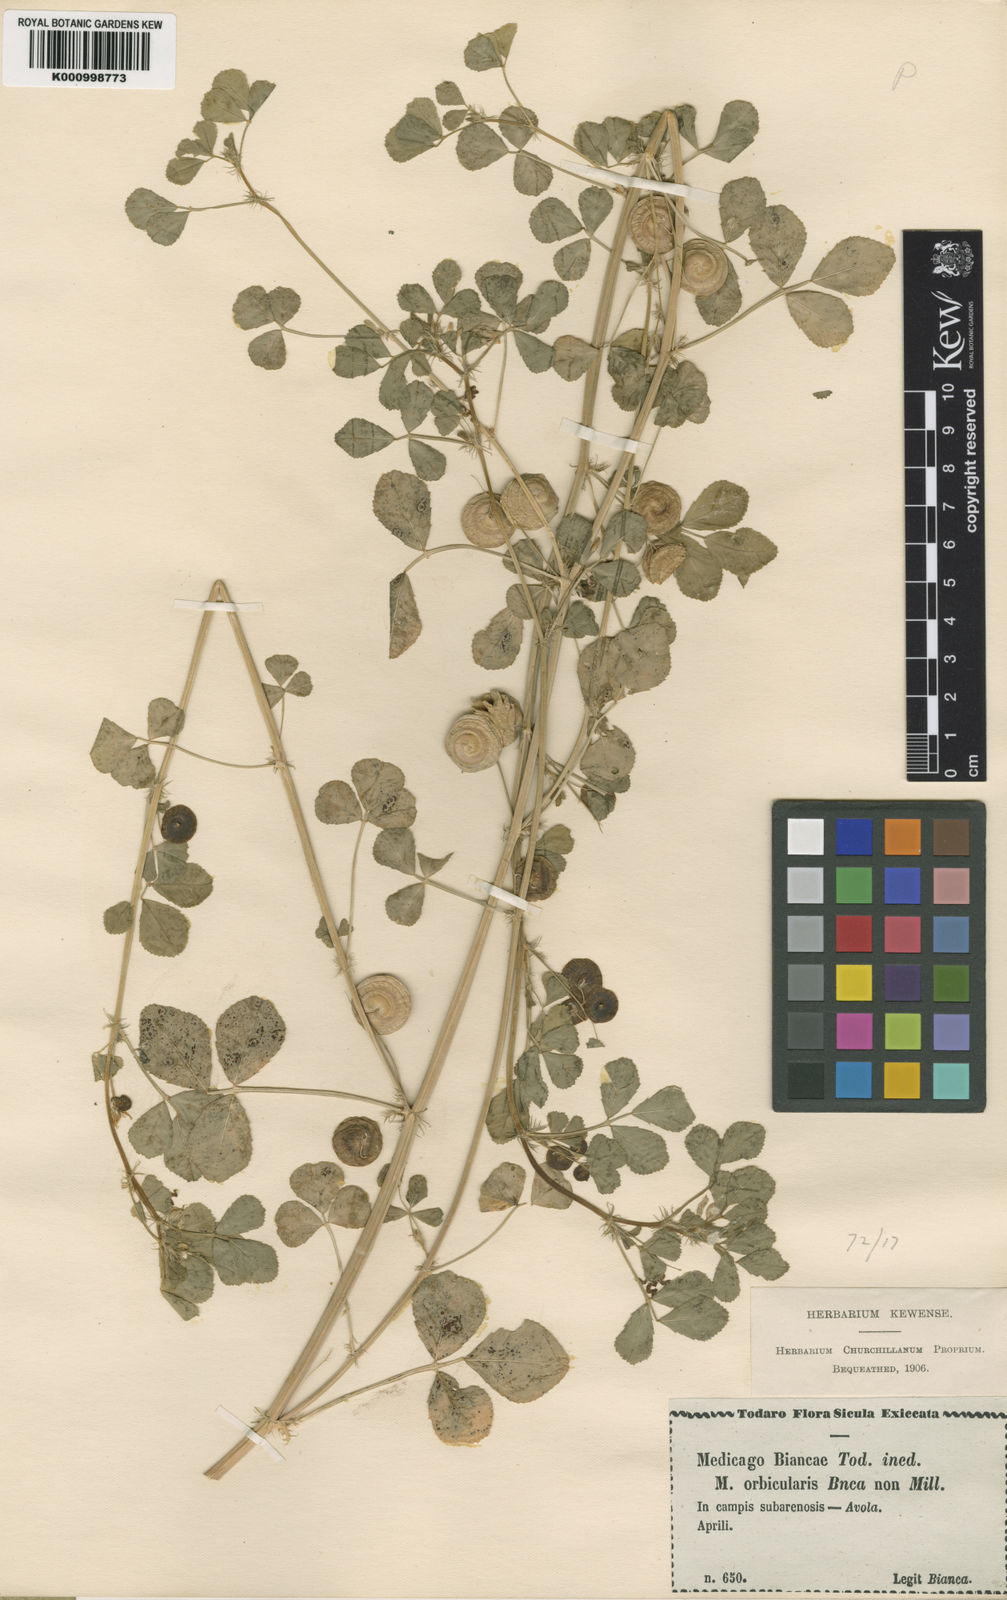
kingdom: Plantae
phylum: Tracheophyta
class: Magnoliopsida
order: Fabales
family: Fabaceae
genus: Medicago
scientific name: Medicago orbicularis
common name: Button medick
